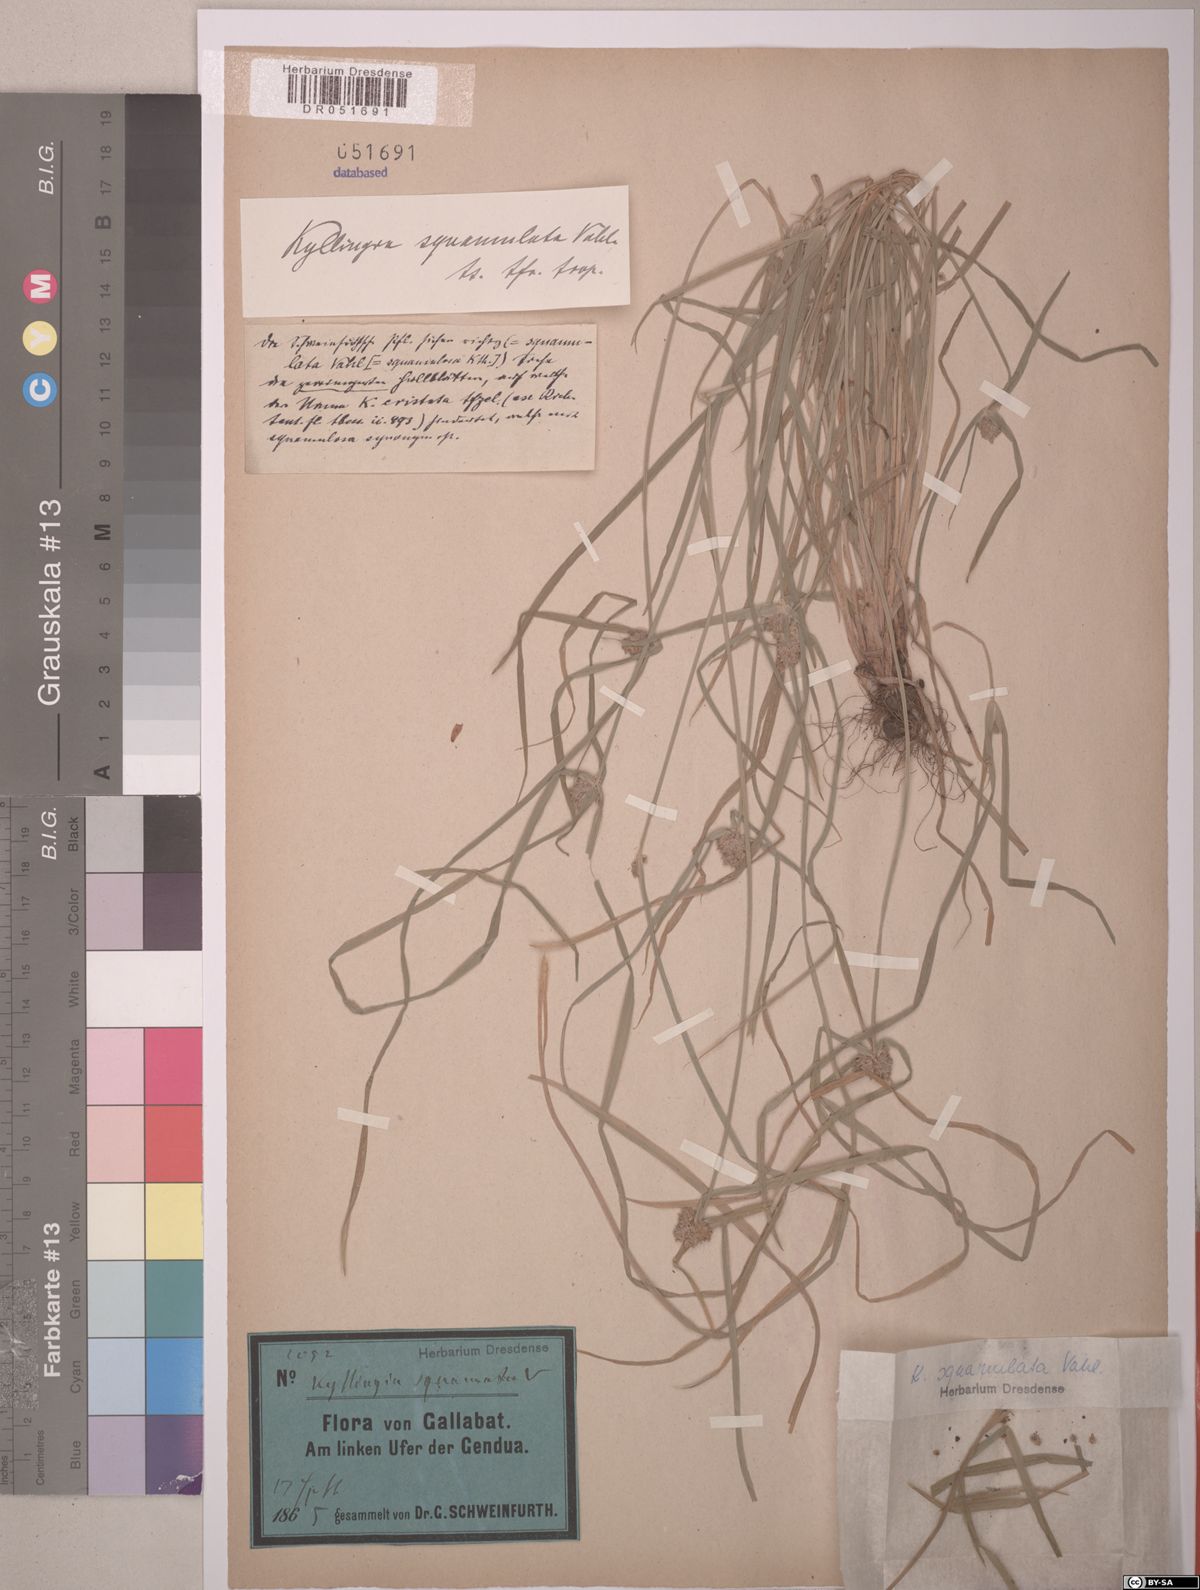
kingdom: Plantae
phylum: Tracheophyta
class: Liliopsida
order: Poales
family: Cyperaceae
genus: Cyperus
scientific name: Cyperus metzii
